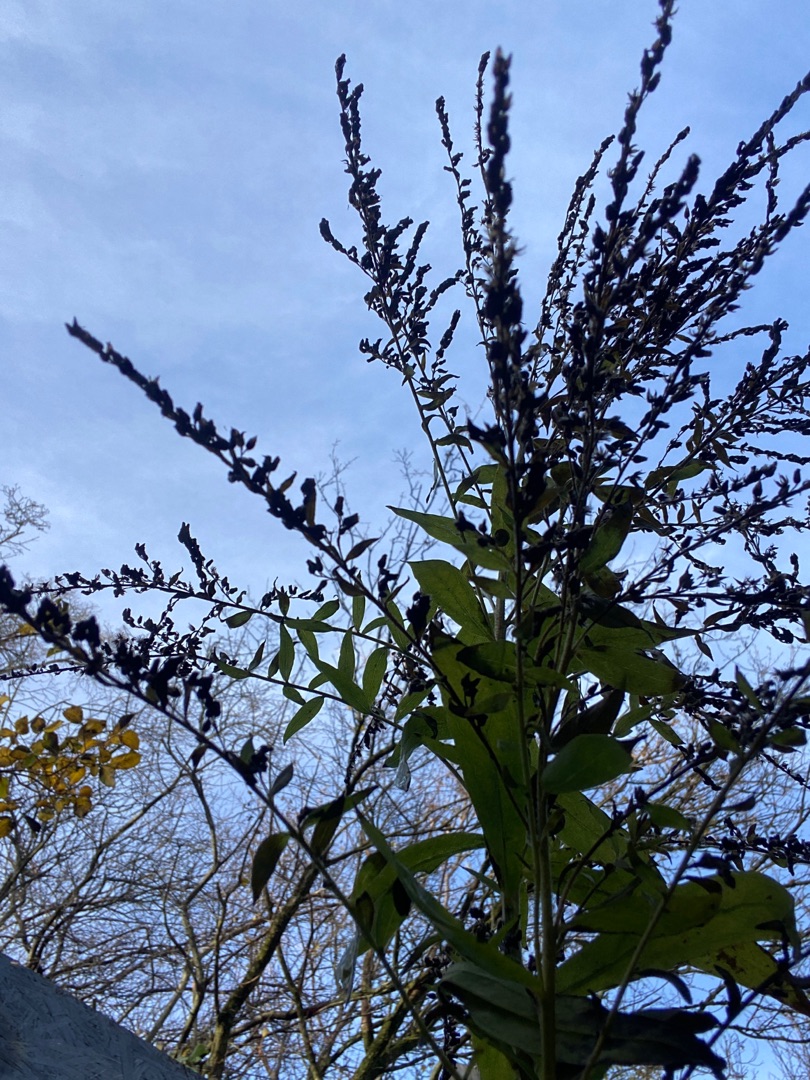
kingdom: Plantae
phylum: Tracheophyta
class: Magnoliopsida
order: Asterales
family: Asteraceae
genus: Solidago
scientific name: Solidago
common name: Gyldenrisslægten
